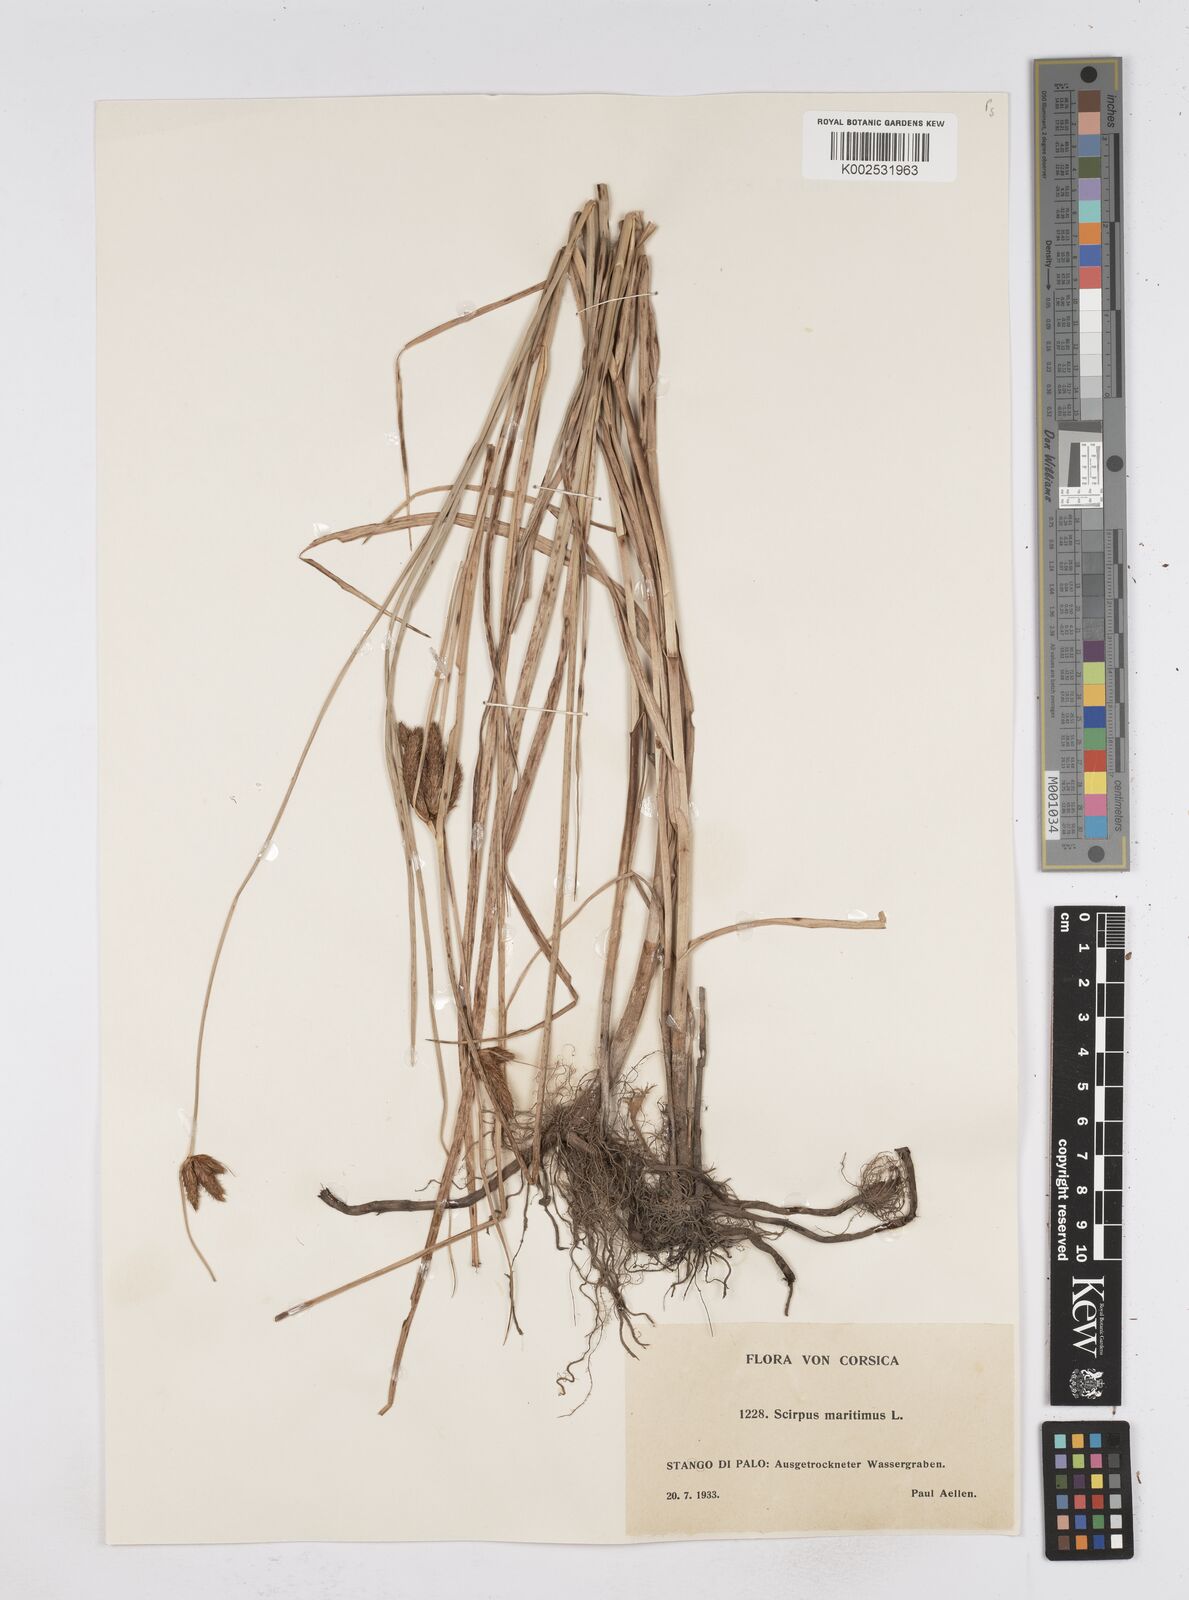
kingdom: Plantae
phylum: Tracheophyta
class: Liliopsida
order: Poales
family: Cyperaceae
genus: Bolboschoenus
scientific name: Bolboschoenus maritimus
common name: Sea club-rush
